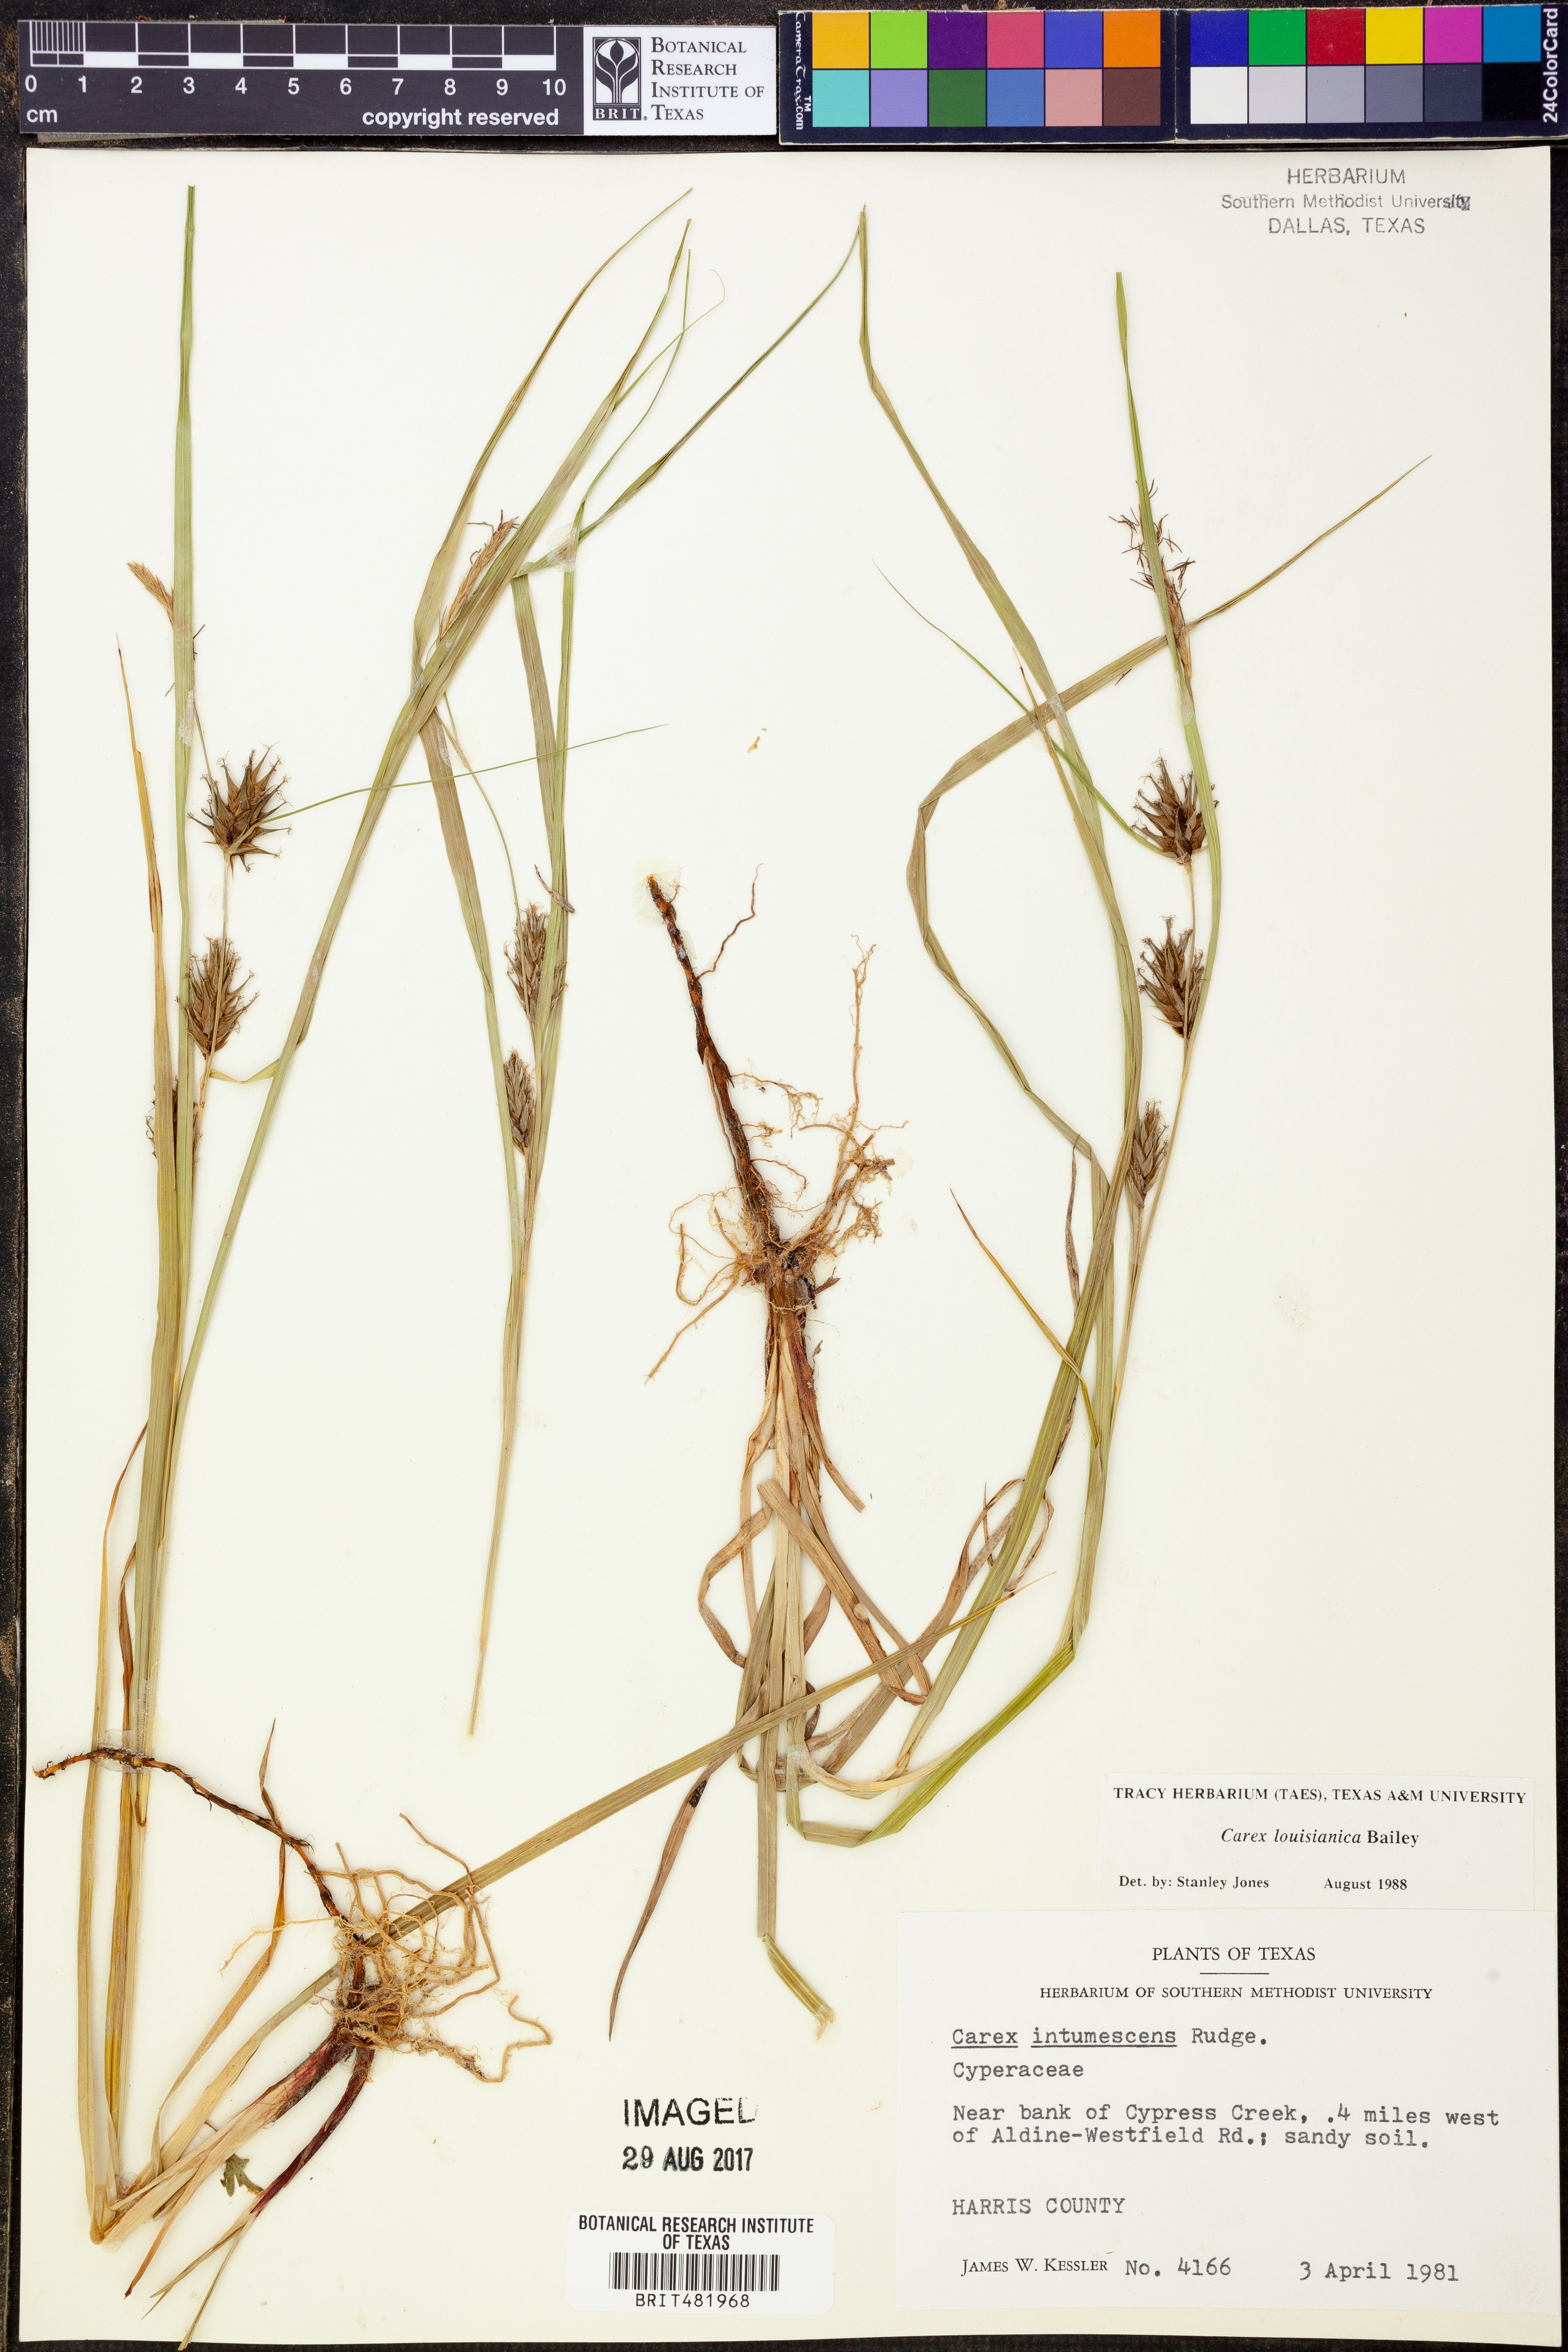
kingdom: Plantae
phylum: Tracheophyta
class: Liliopsida
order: Poales
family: Cyperaceae
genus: Carex
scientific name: Carex intumescens
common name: Greater bladder sedge
